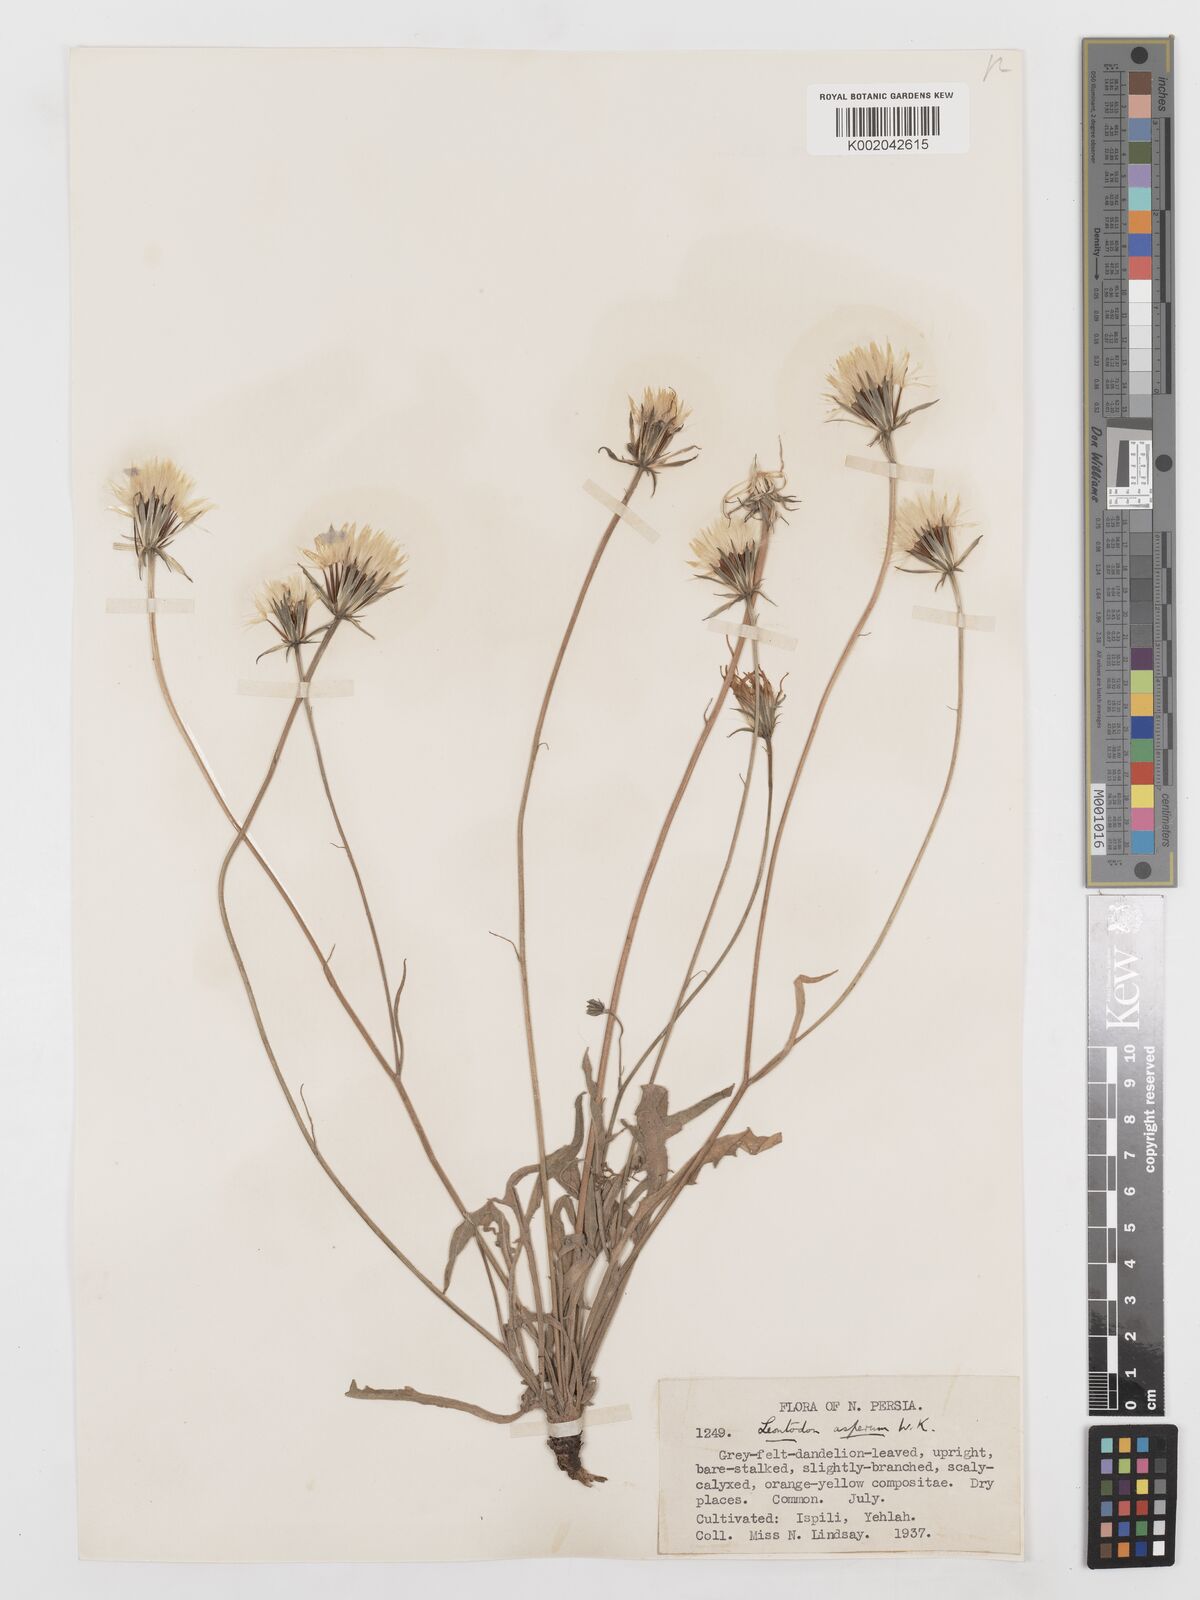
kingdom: Plantae
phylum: Tracheophyta
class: Magnoliopsida
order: Asterales
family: Asteraceae
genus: Leontodon
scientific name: Leontodon
